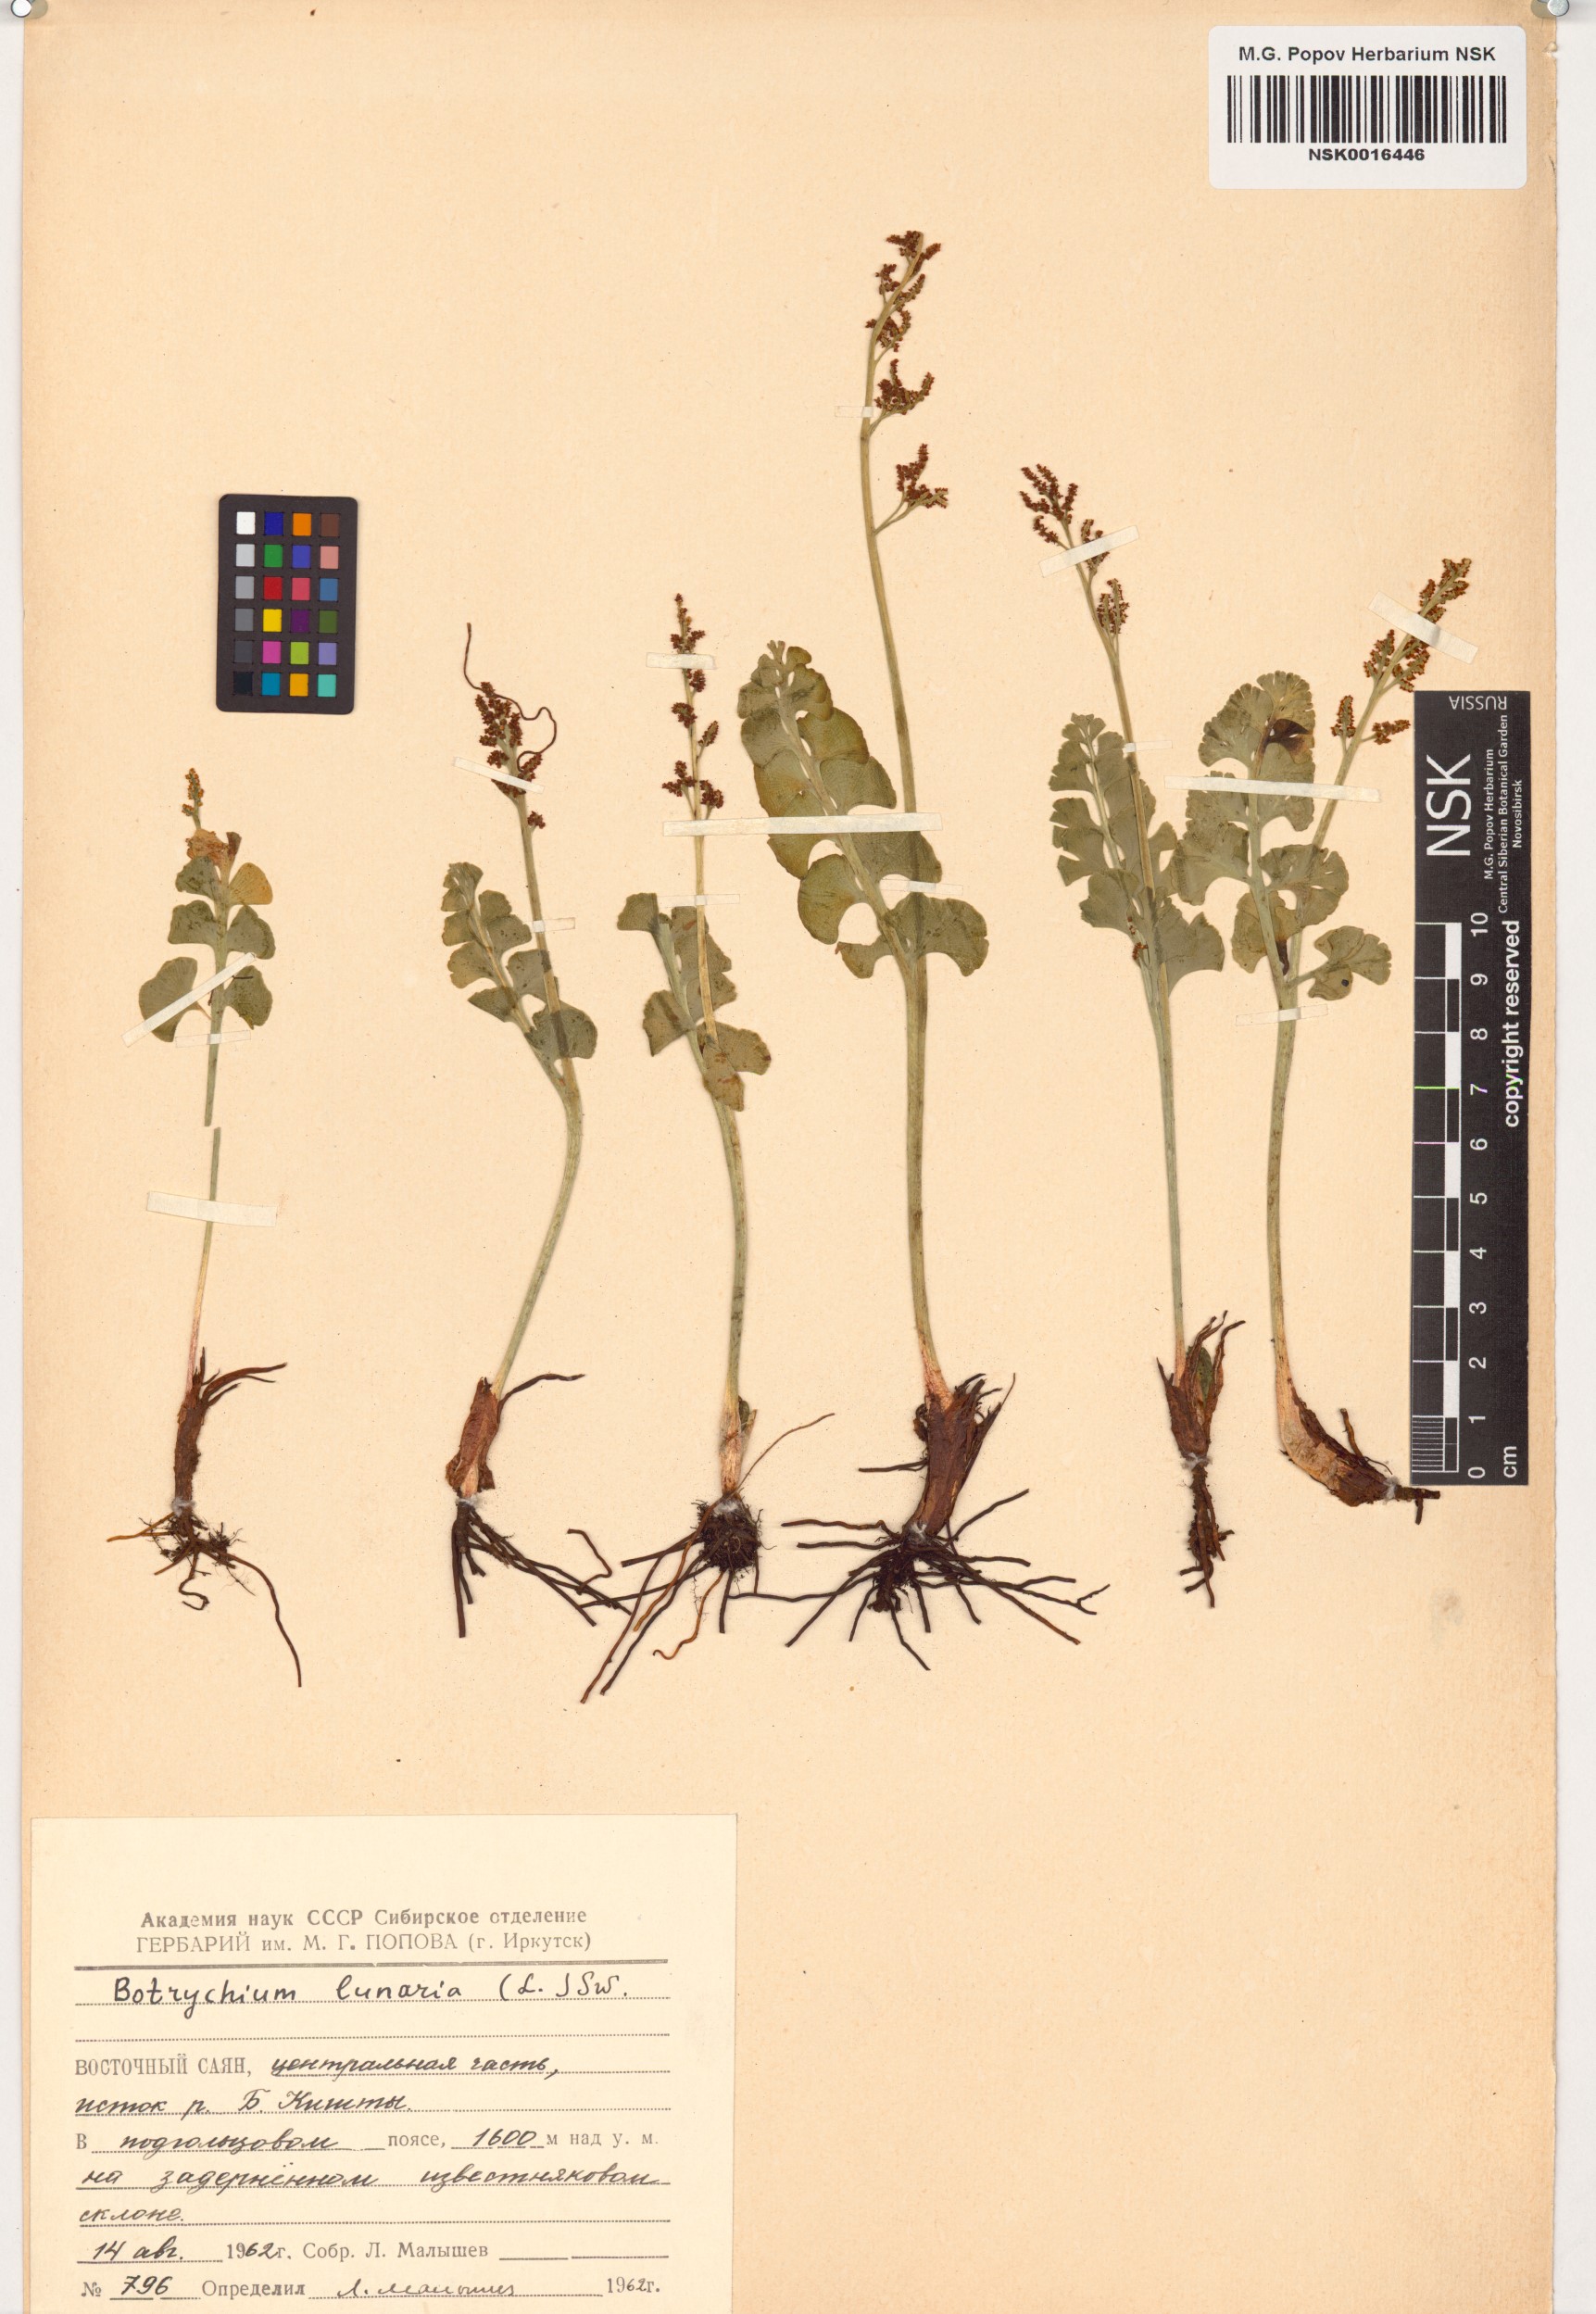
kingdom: Plantae
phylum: Tracheophyta
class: Polypodiopsida
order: Ophioglossales
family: Ophioglossaceae
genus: Botrychium
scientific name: Botrychium lunaria
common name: Moonwort
